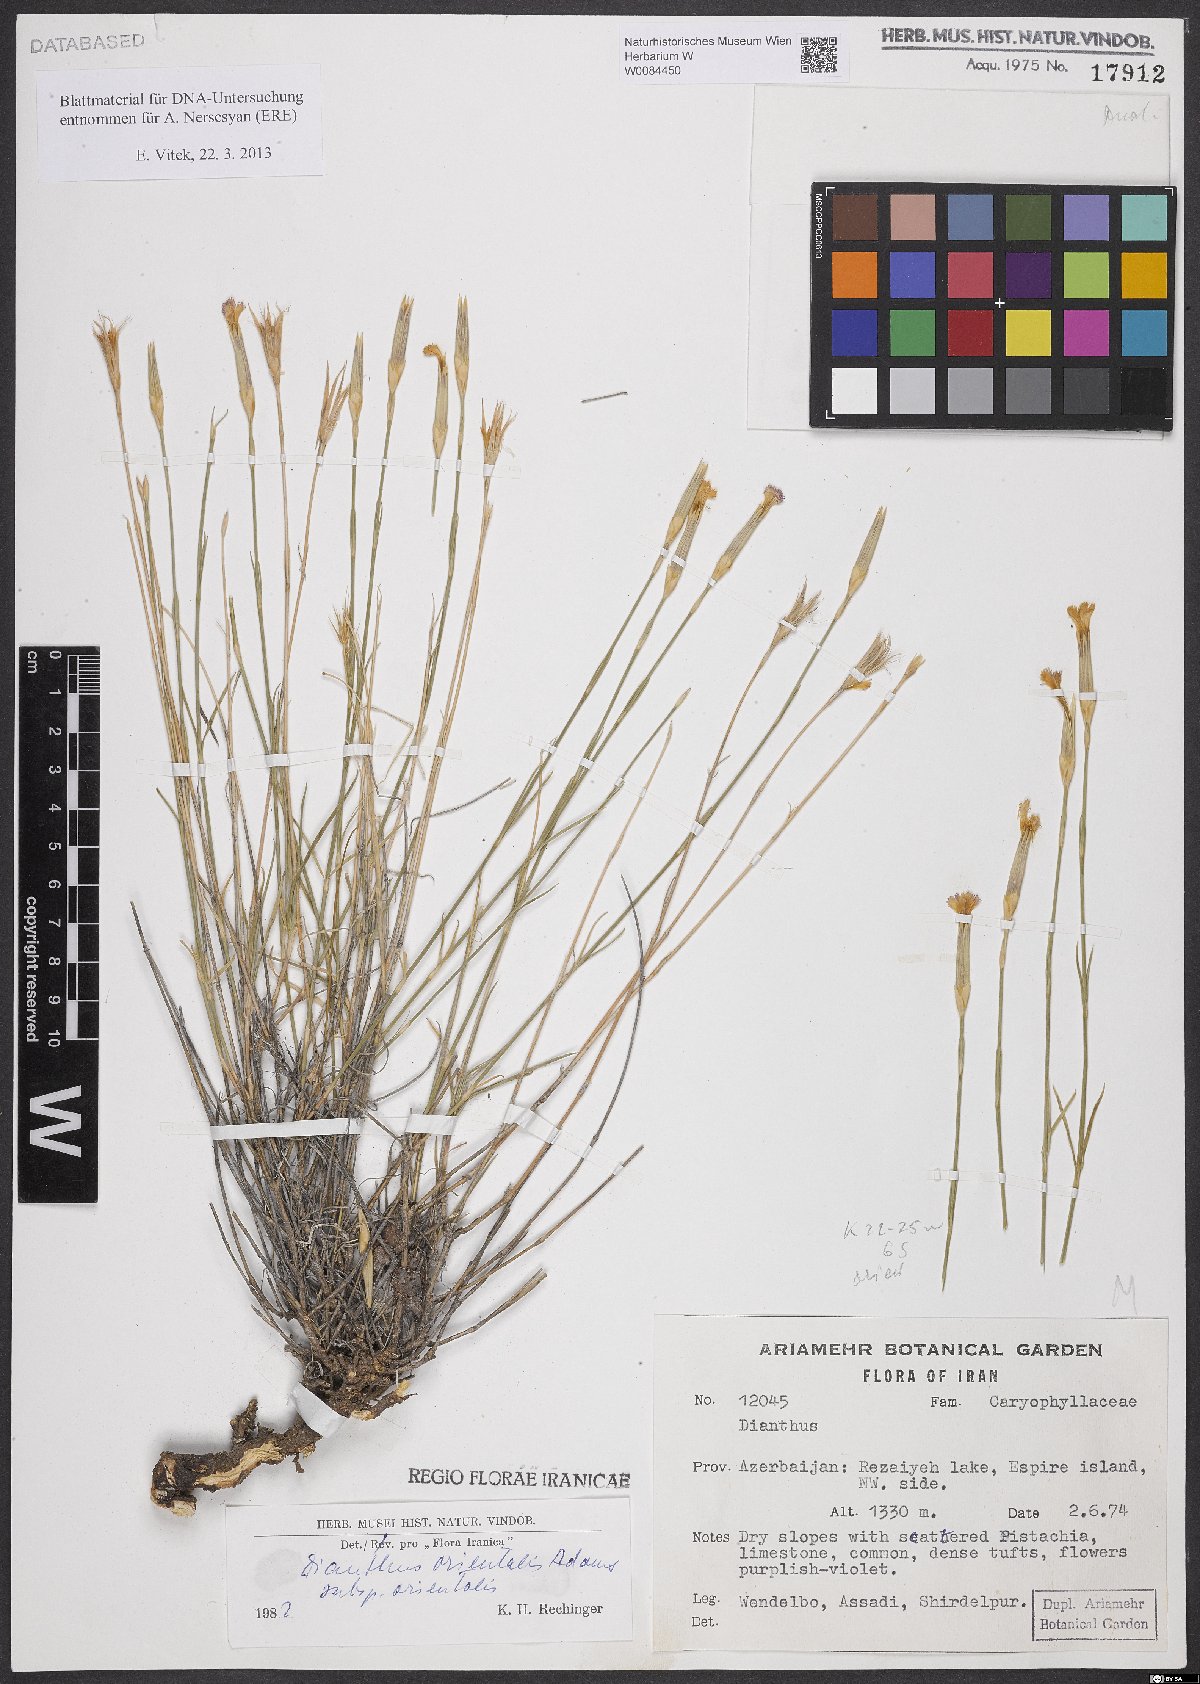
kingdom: Plantae
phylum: Tracheophyta
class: Magnoliopsida
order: Caryophyllales
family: Caryophyllaceae
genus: Dianthus
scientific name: Dianthus orientalis
